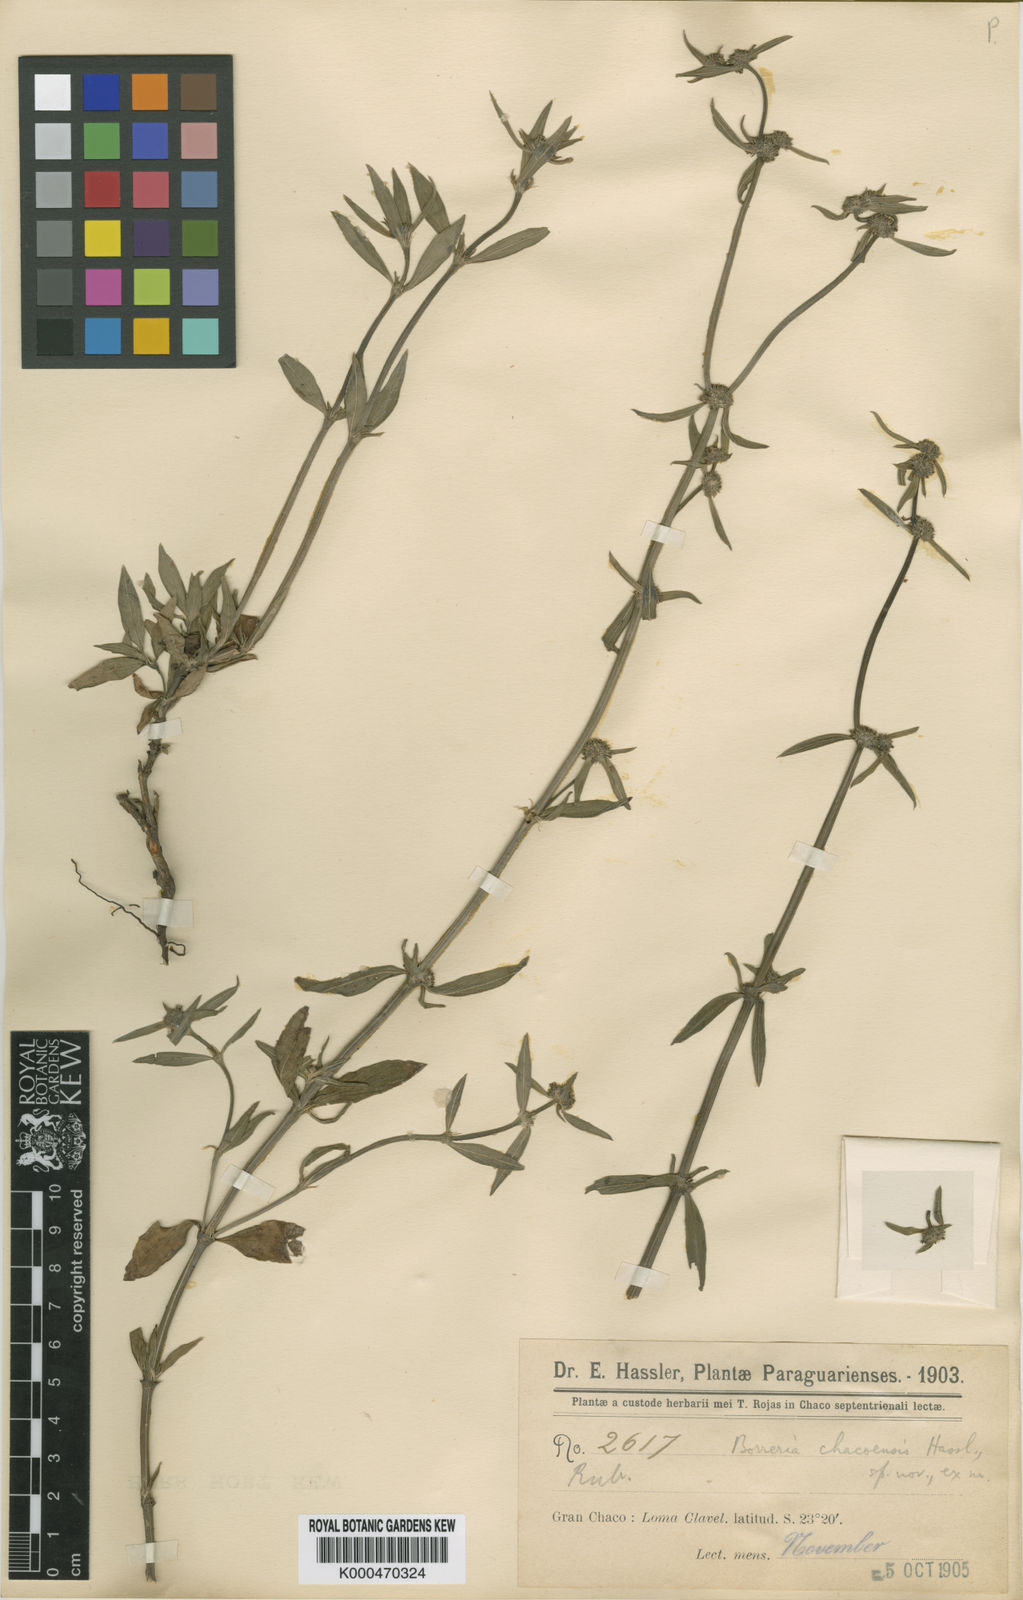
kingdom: Plantae
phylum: Tracheophyta
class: Magnoliopsida
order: Gentianales
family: Rubiaceae
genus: Spermacoce
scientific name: Spermacoce eryngioides
